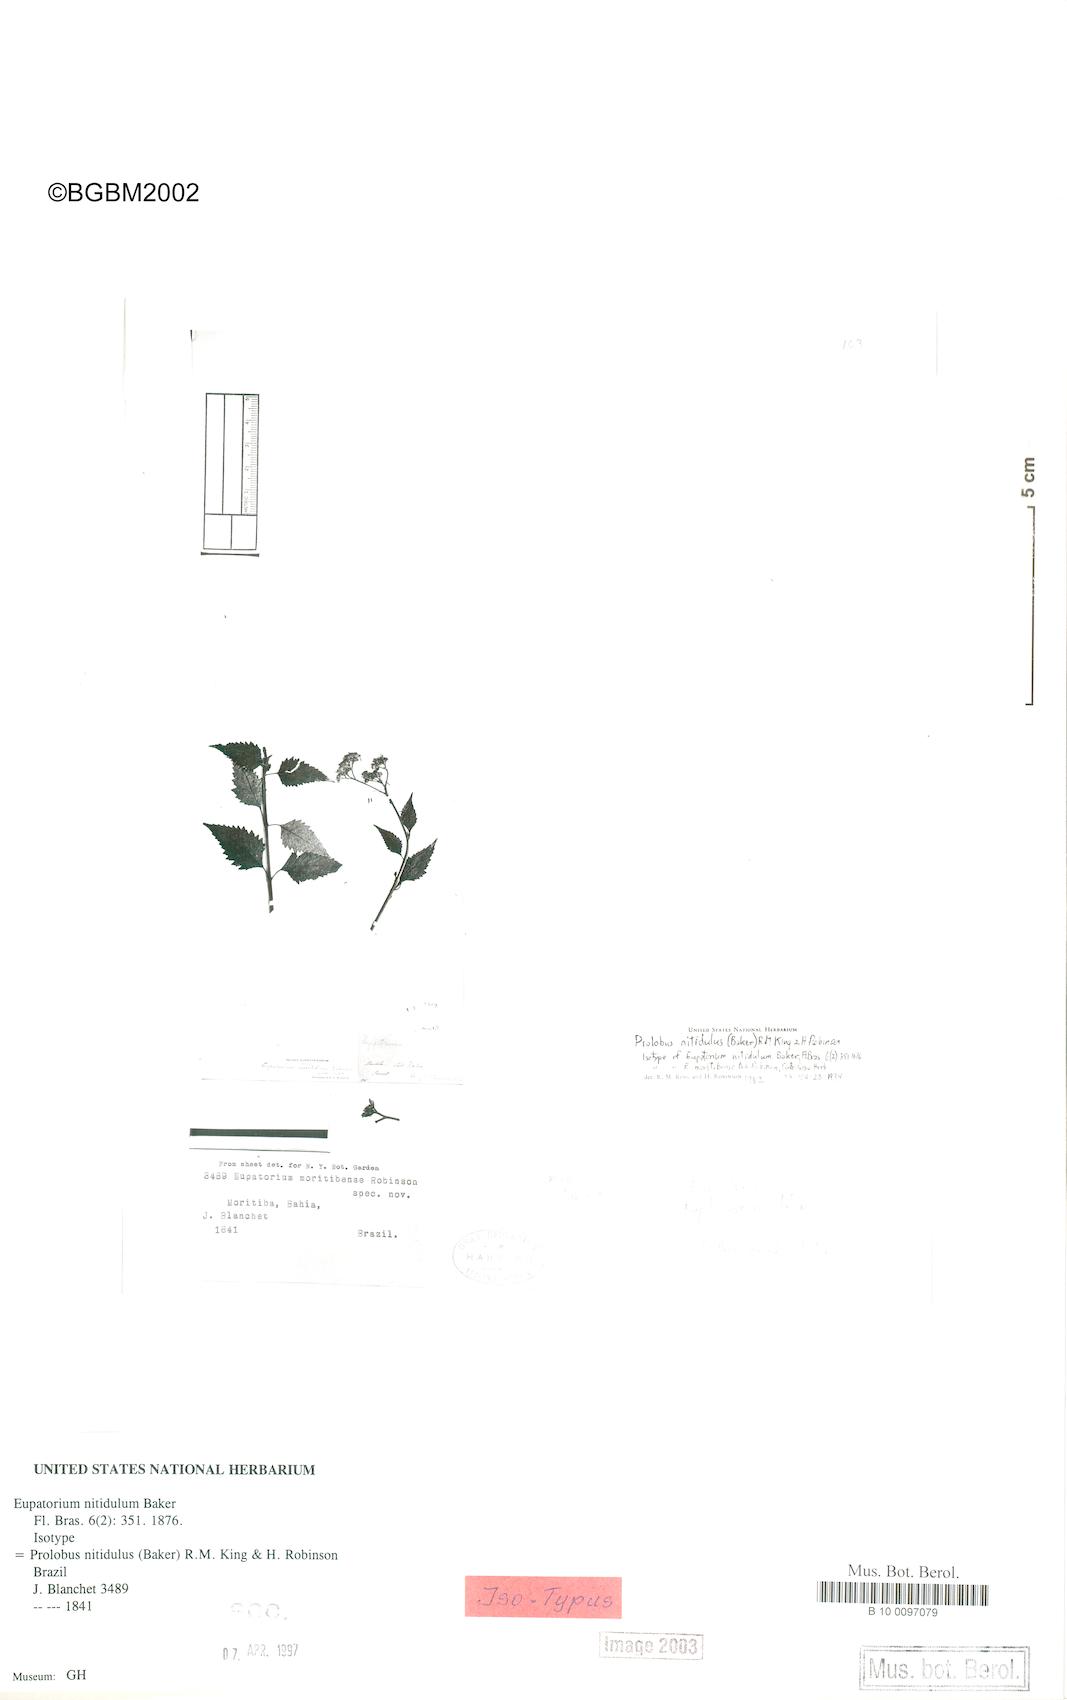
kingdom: Plantae
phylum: Tracheophyta
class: Magnoliopsida
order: Asterales
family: Asteraceae
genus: Prolobus
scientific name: Prolobus nitidulus
